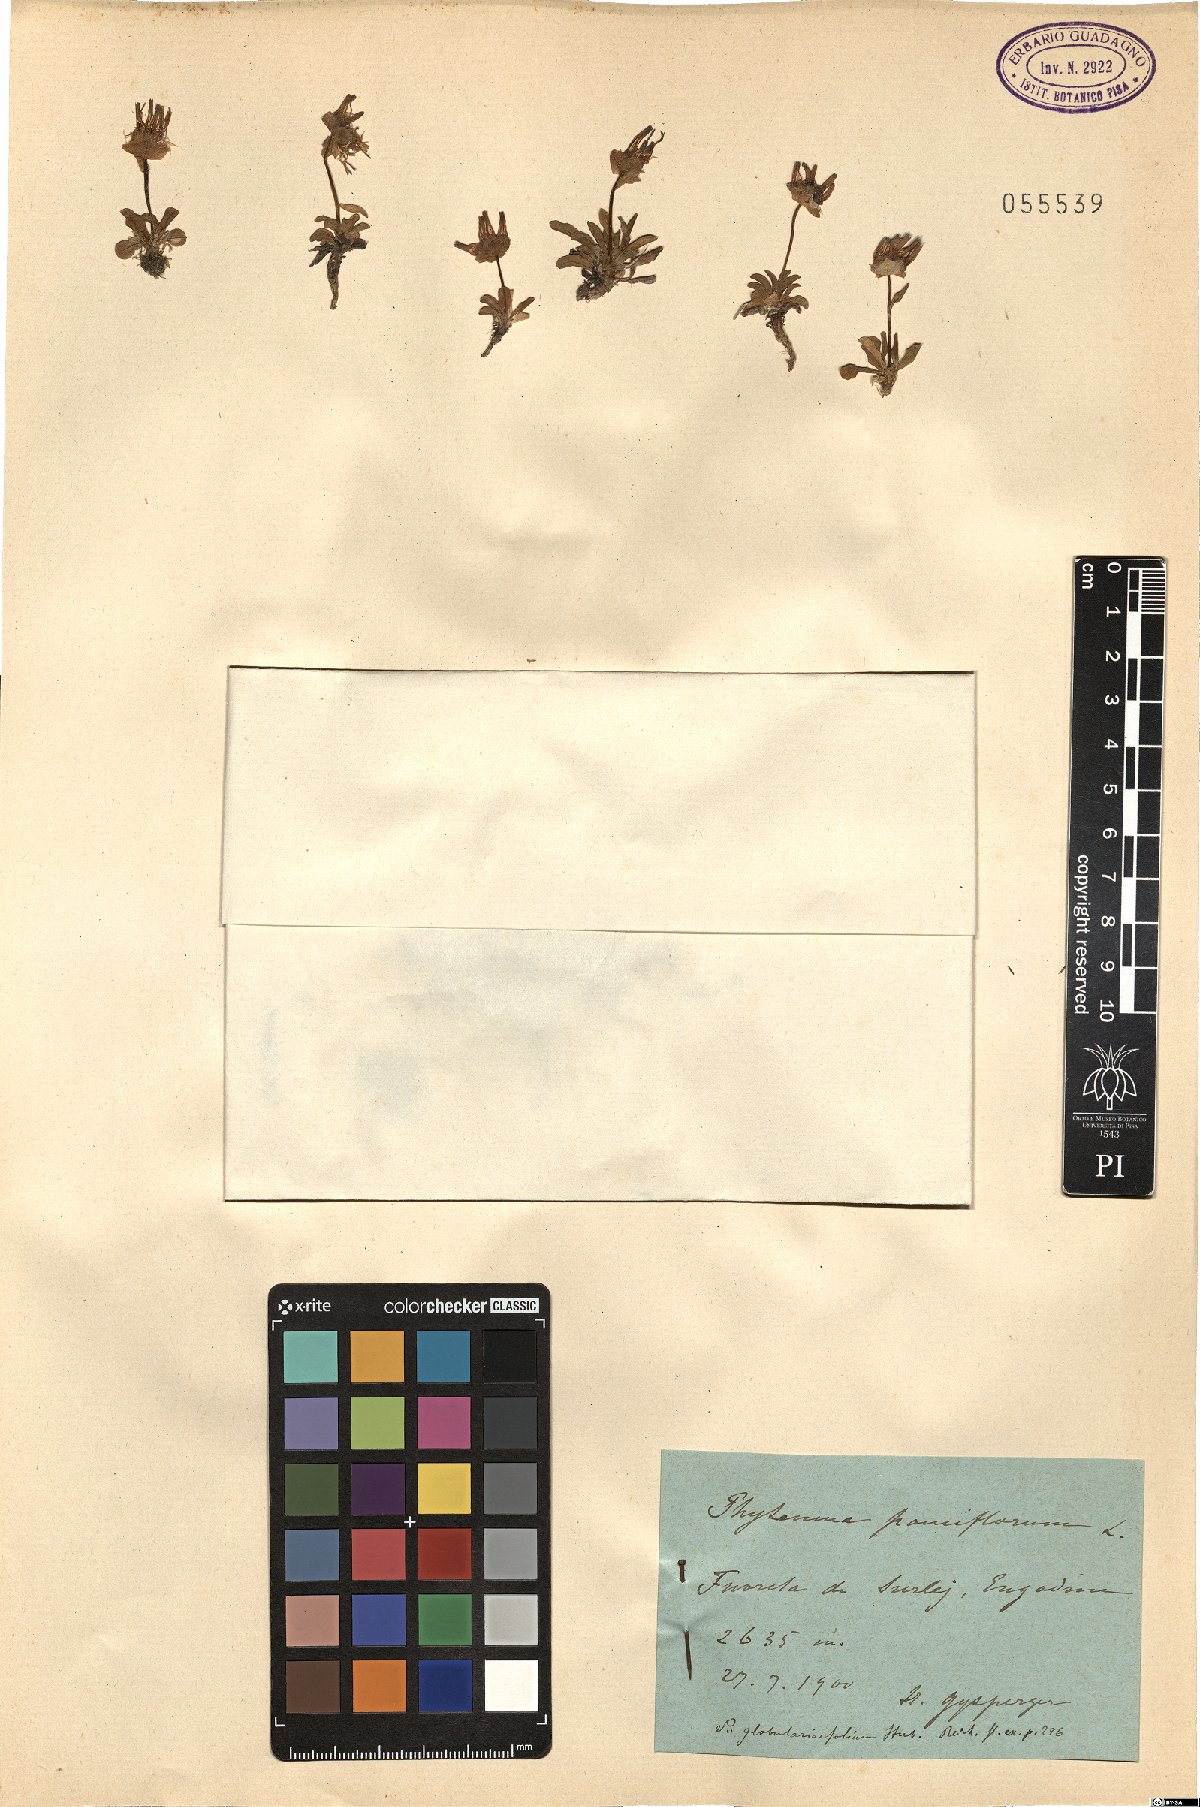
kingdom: Plantae
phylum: Tracheophyta
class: Magnoliopsida
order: Asterales
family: Campanulaceae
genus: Phyteuma
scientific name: Phyteuma globulariifolium
